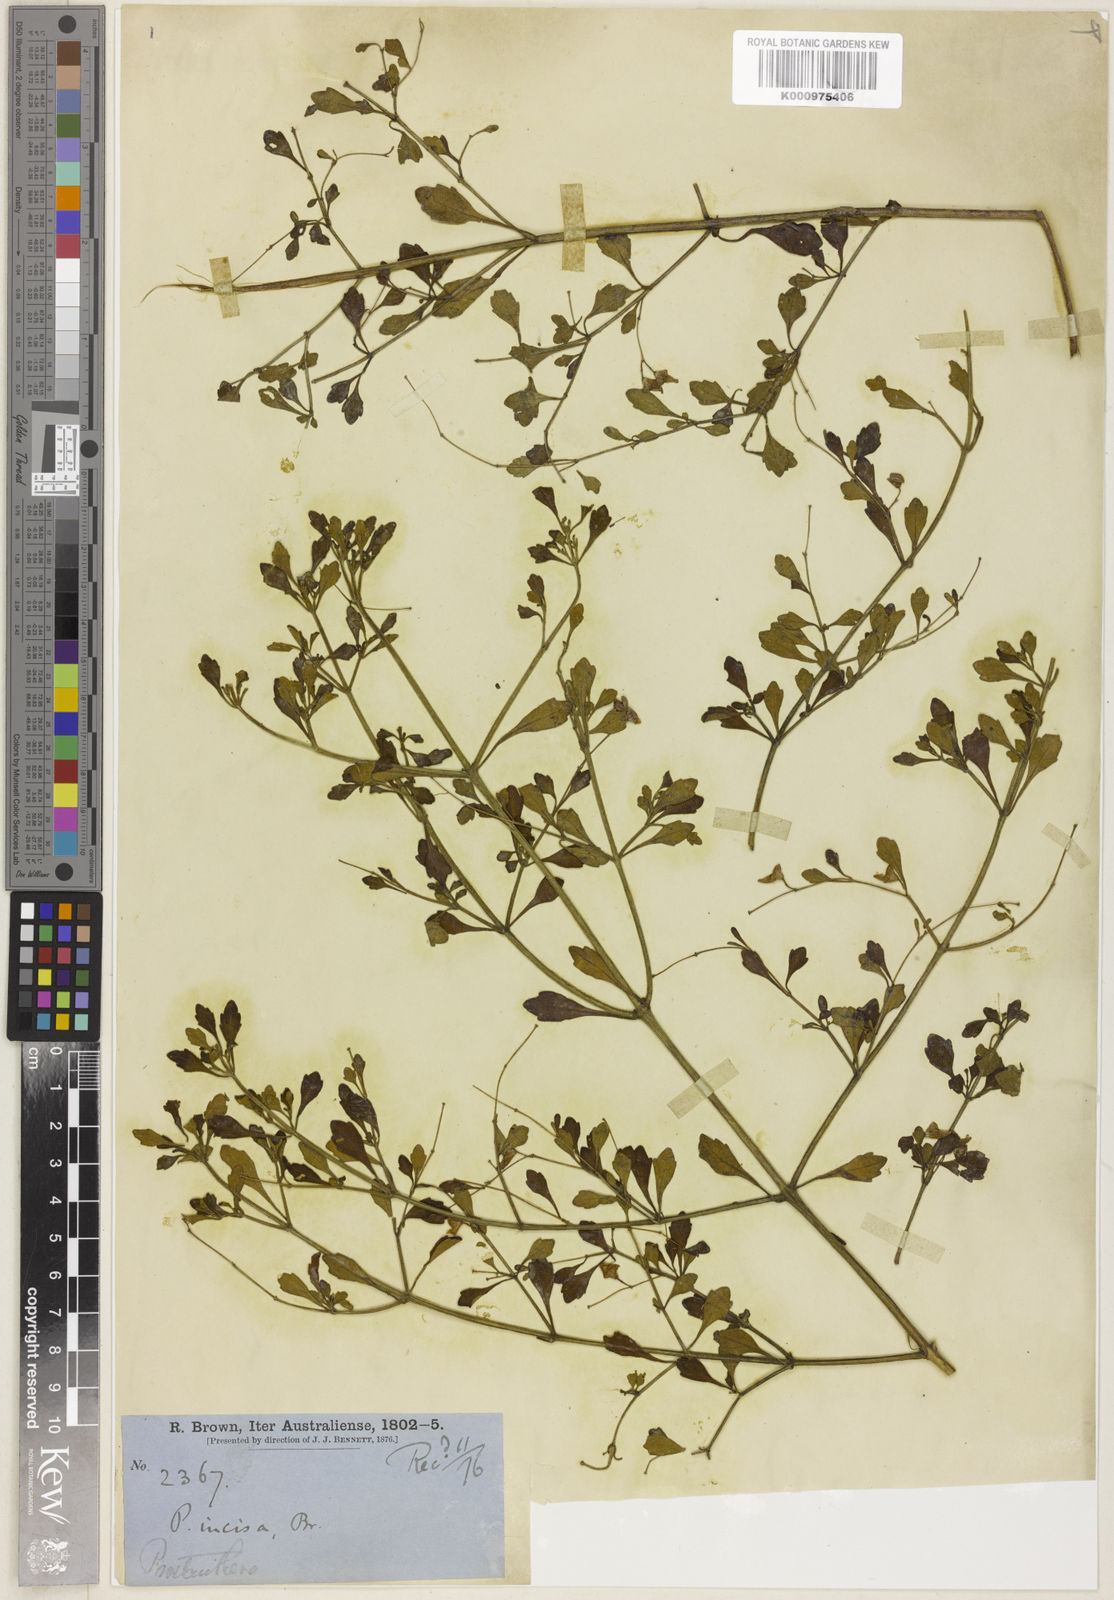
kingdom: Plantae
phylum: Tracheophyta
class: Magnoliopsida
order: Lamiales
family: Lamiaceae
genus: Prostanthera
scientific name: Prostanthera incisa
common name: Cut-leaf mintbush
